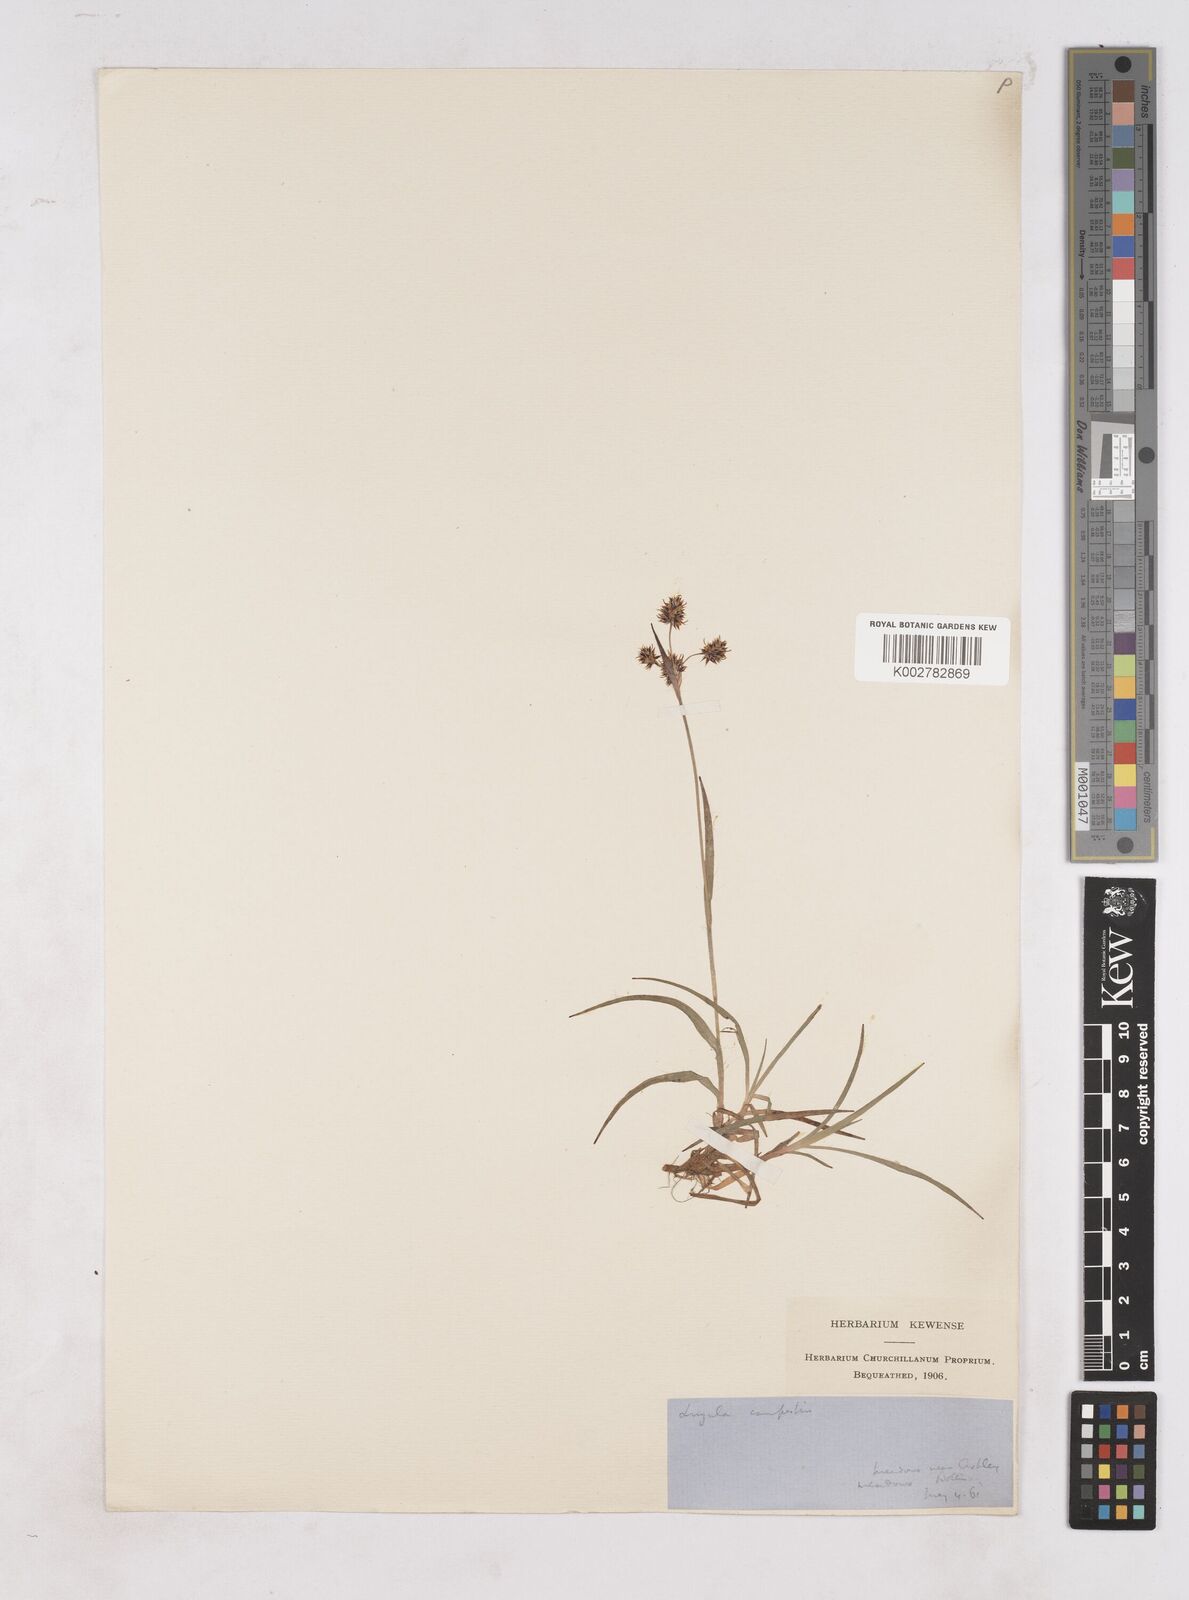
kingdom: Plantae
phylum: Tracheophyta
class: Liliopsida
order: Poales
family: Juncaceae
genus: Luzula
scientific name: Luzula campestris
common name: Field wood-rush
